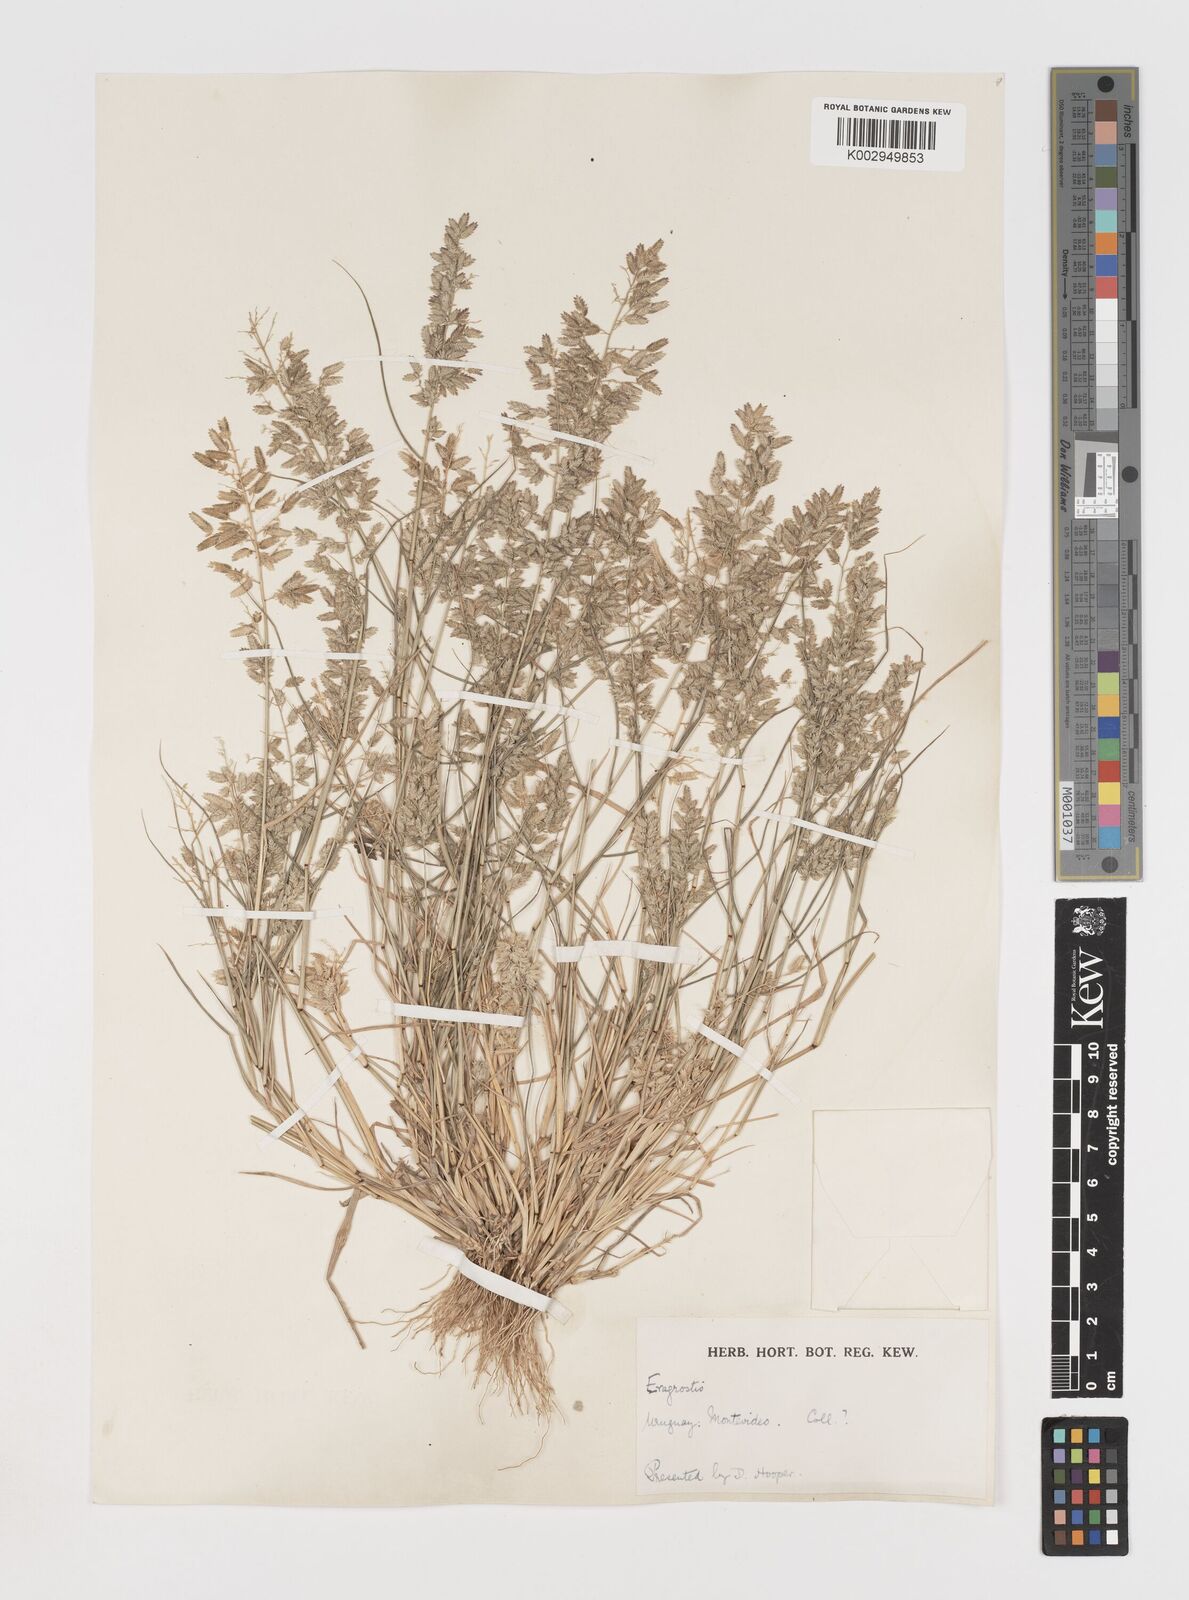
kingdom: Plantae
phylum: Tracheophyta
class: Liliopsida
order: Poales
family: Poaceae
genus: Eragrostis
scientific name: Eragrostis cilianensis
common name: Stinkgrass
